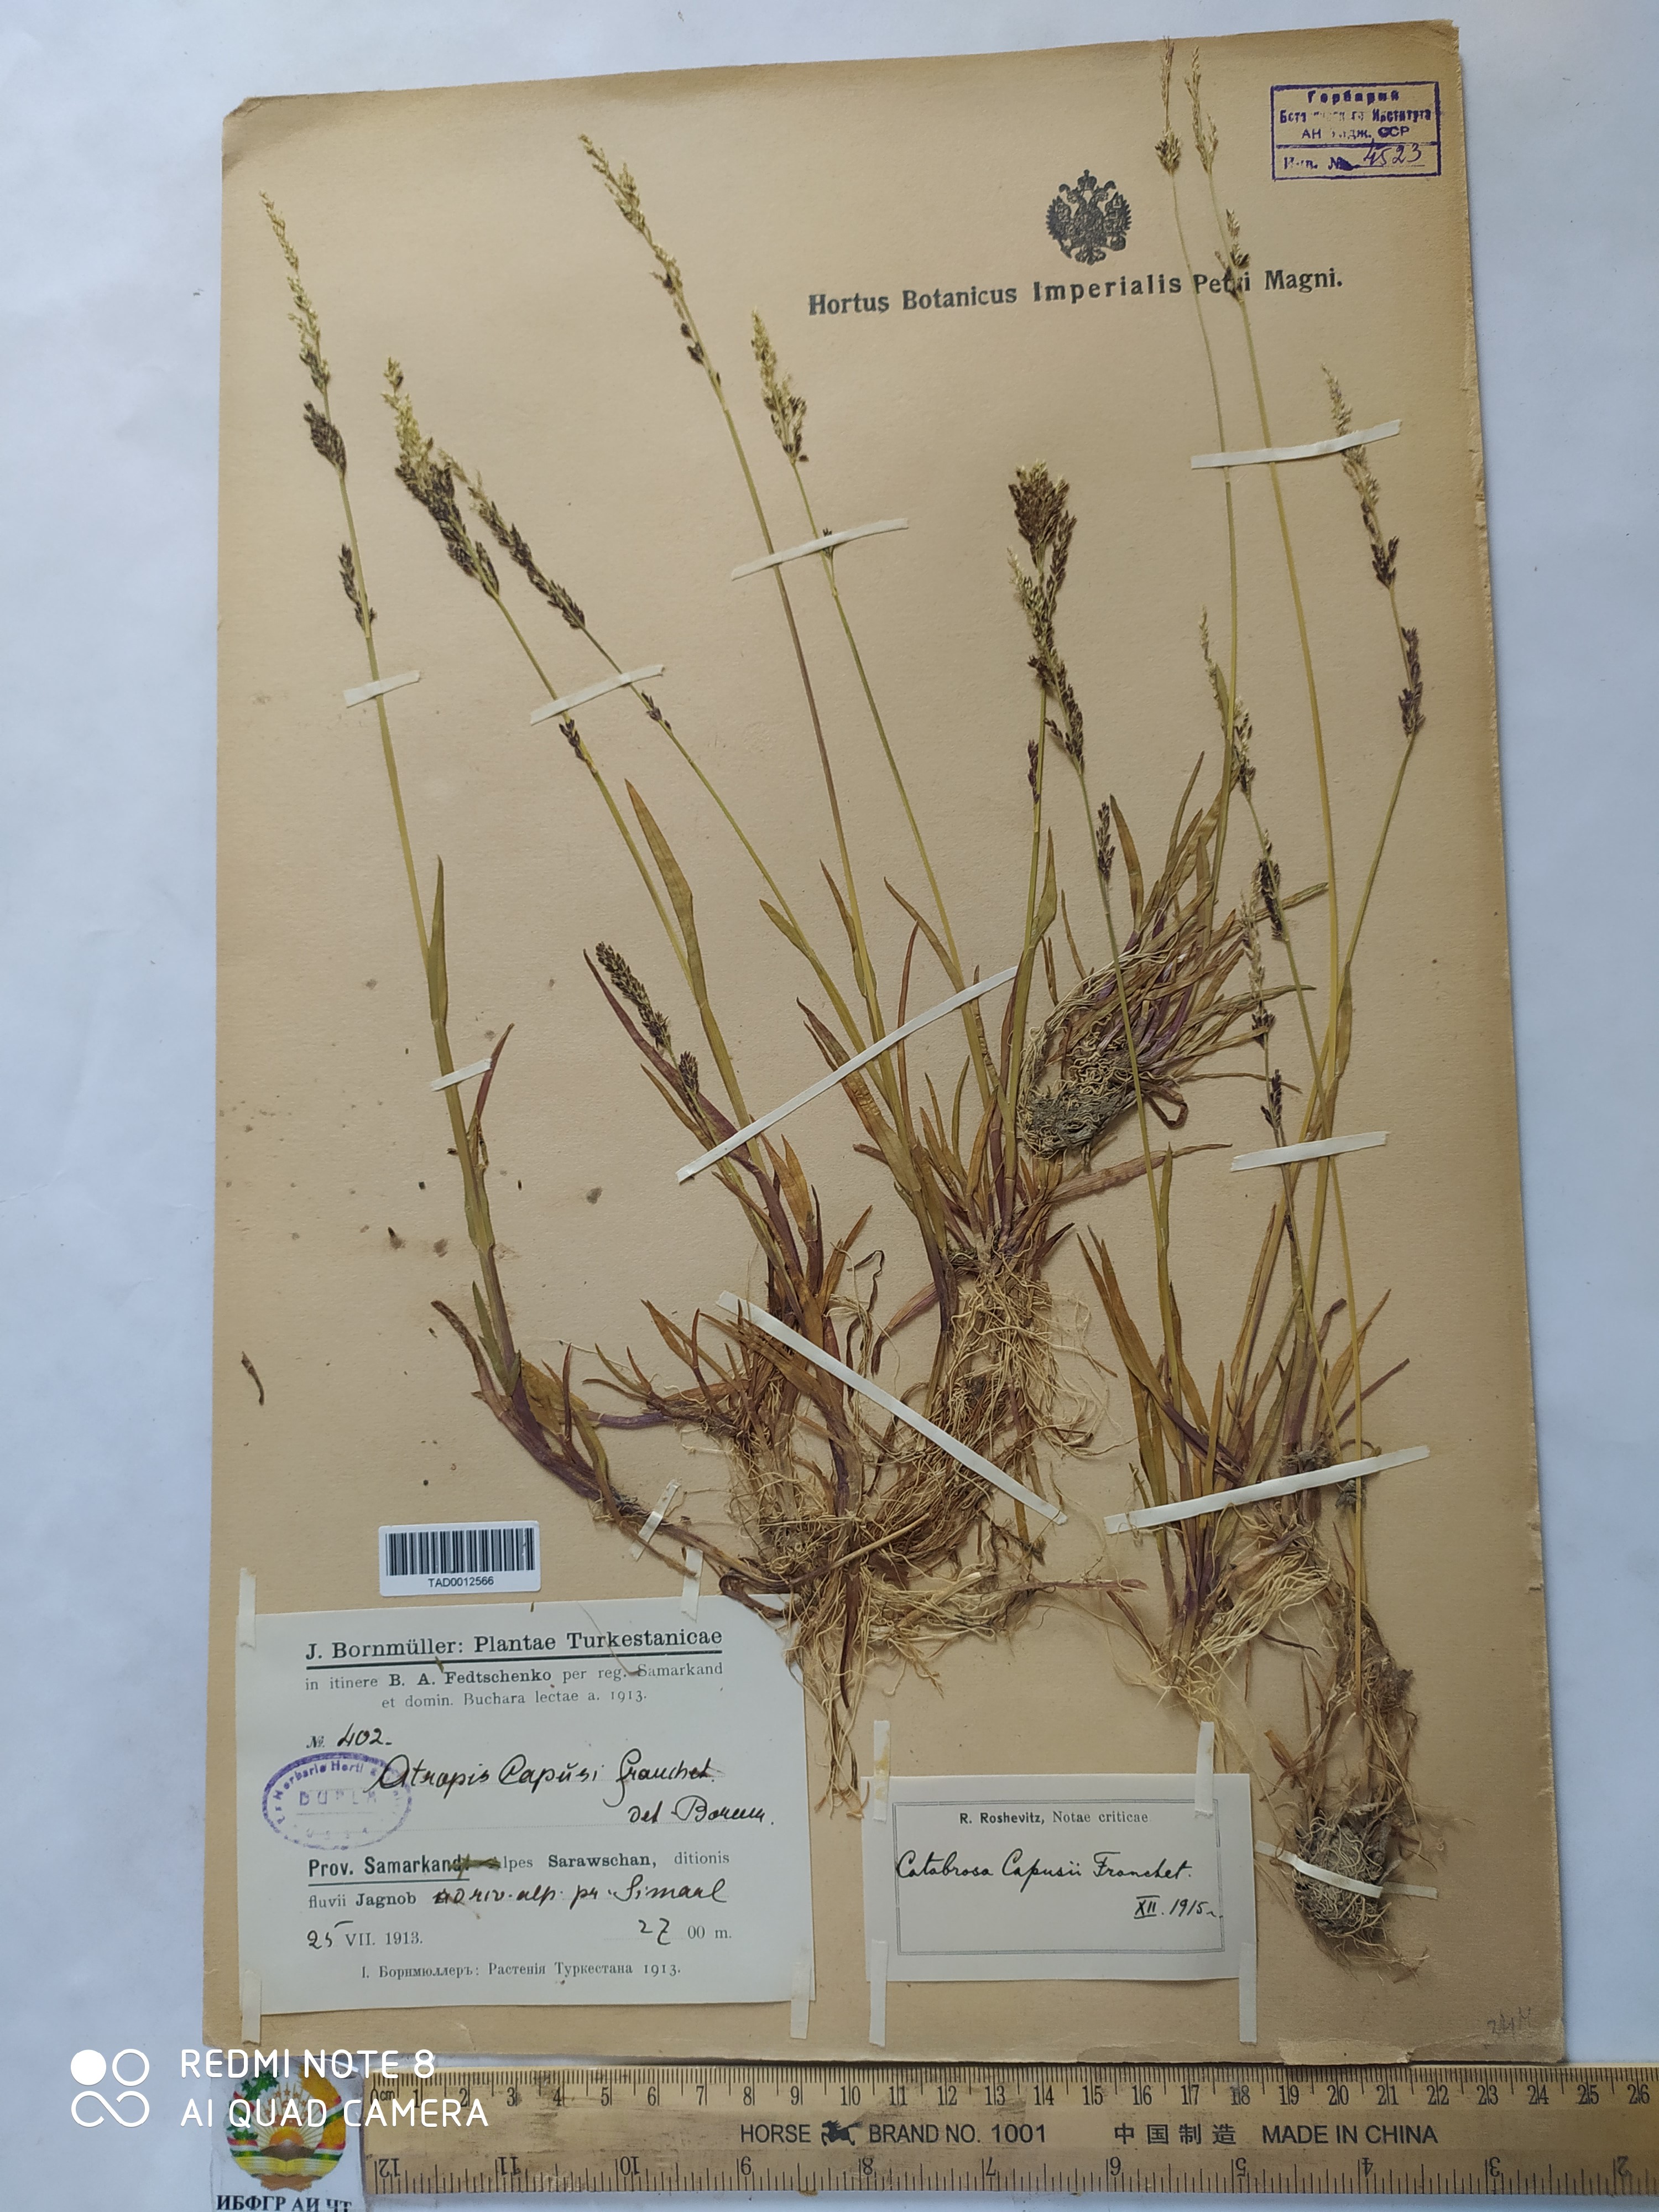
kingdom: Plantae
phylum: Tracheophyta
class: Liliopsida
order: Poales
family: Poaceae
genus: Catabrosa
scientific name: Catabrosa aquatica
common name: Whorl-grass
